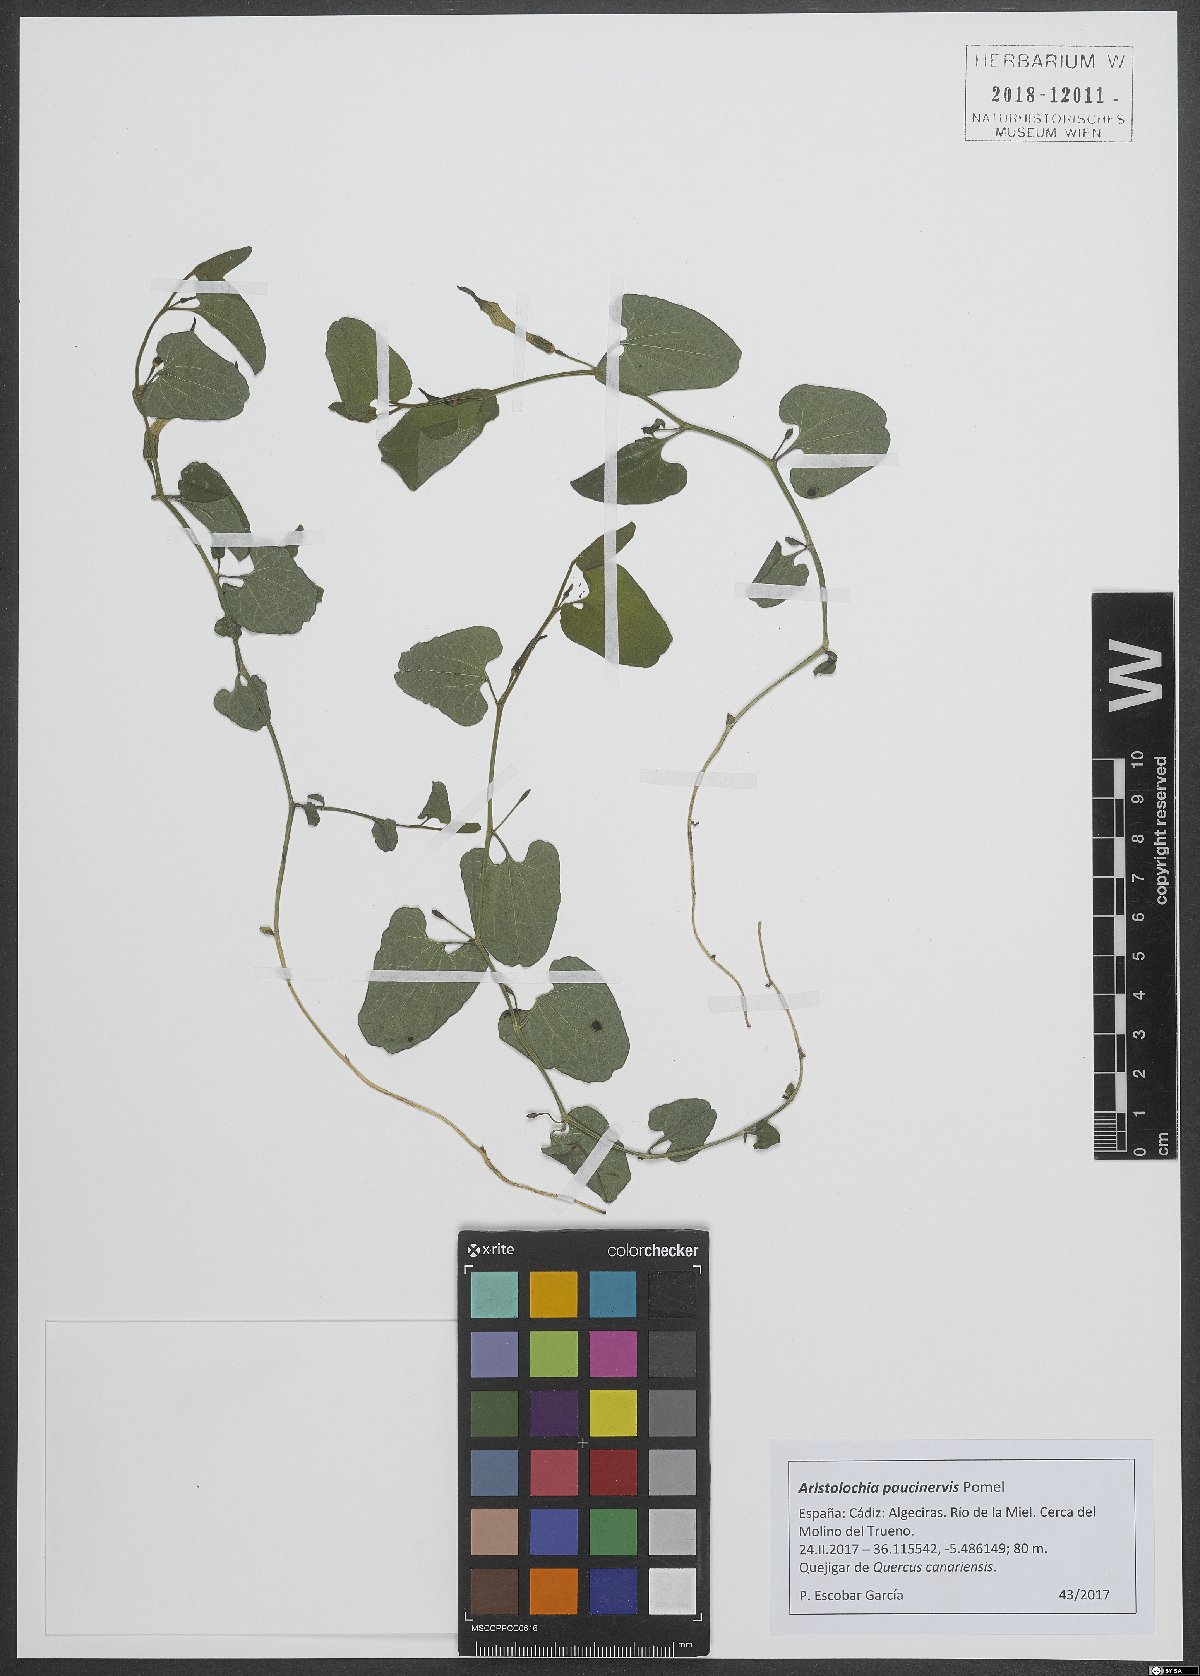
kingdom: Plantae
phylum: Tracheophyta
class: Magnoliopsida
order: Piperales
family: Aristolochiaceae
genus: Aristolochia
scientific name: Aristolochia paucinervis
